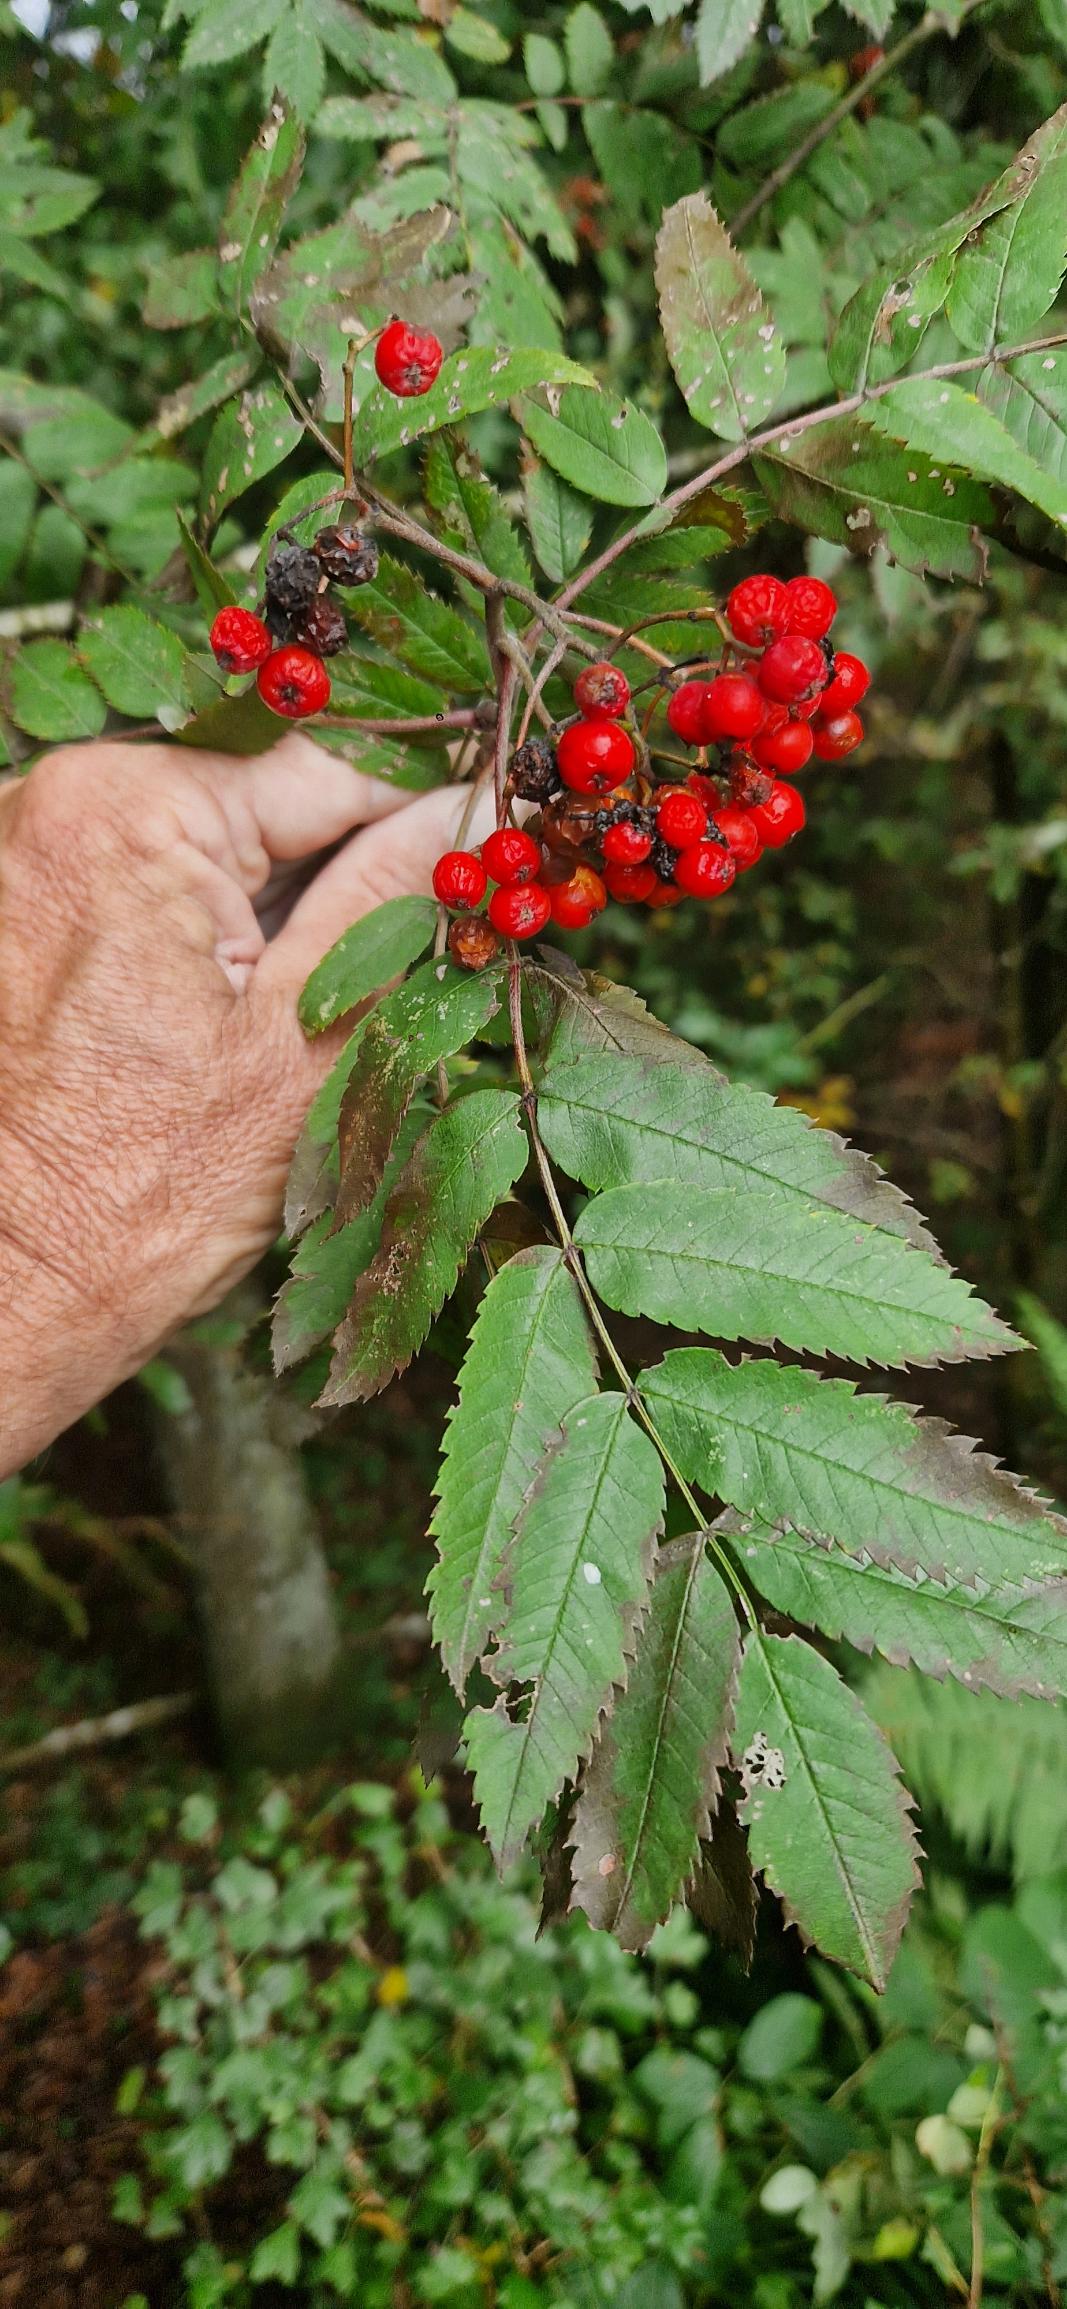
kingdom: Plantae
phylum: Tracheophyta
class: Magnoliopsida
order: Rosales
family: Rosaceae
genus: Sorbus
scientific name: Sorbus aucuparia
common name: Almindelig røn
